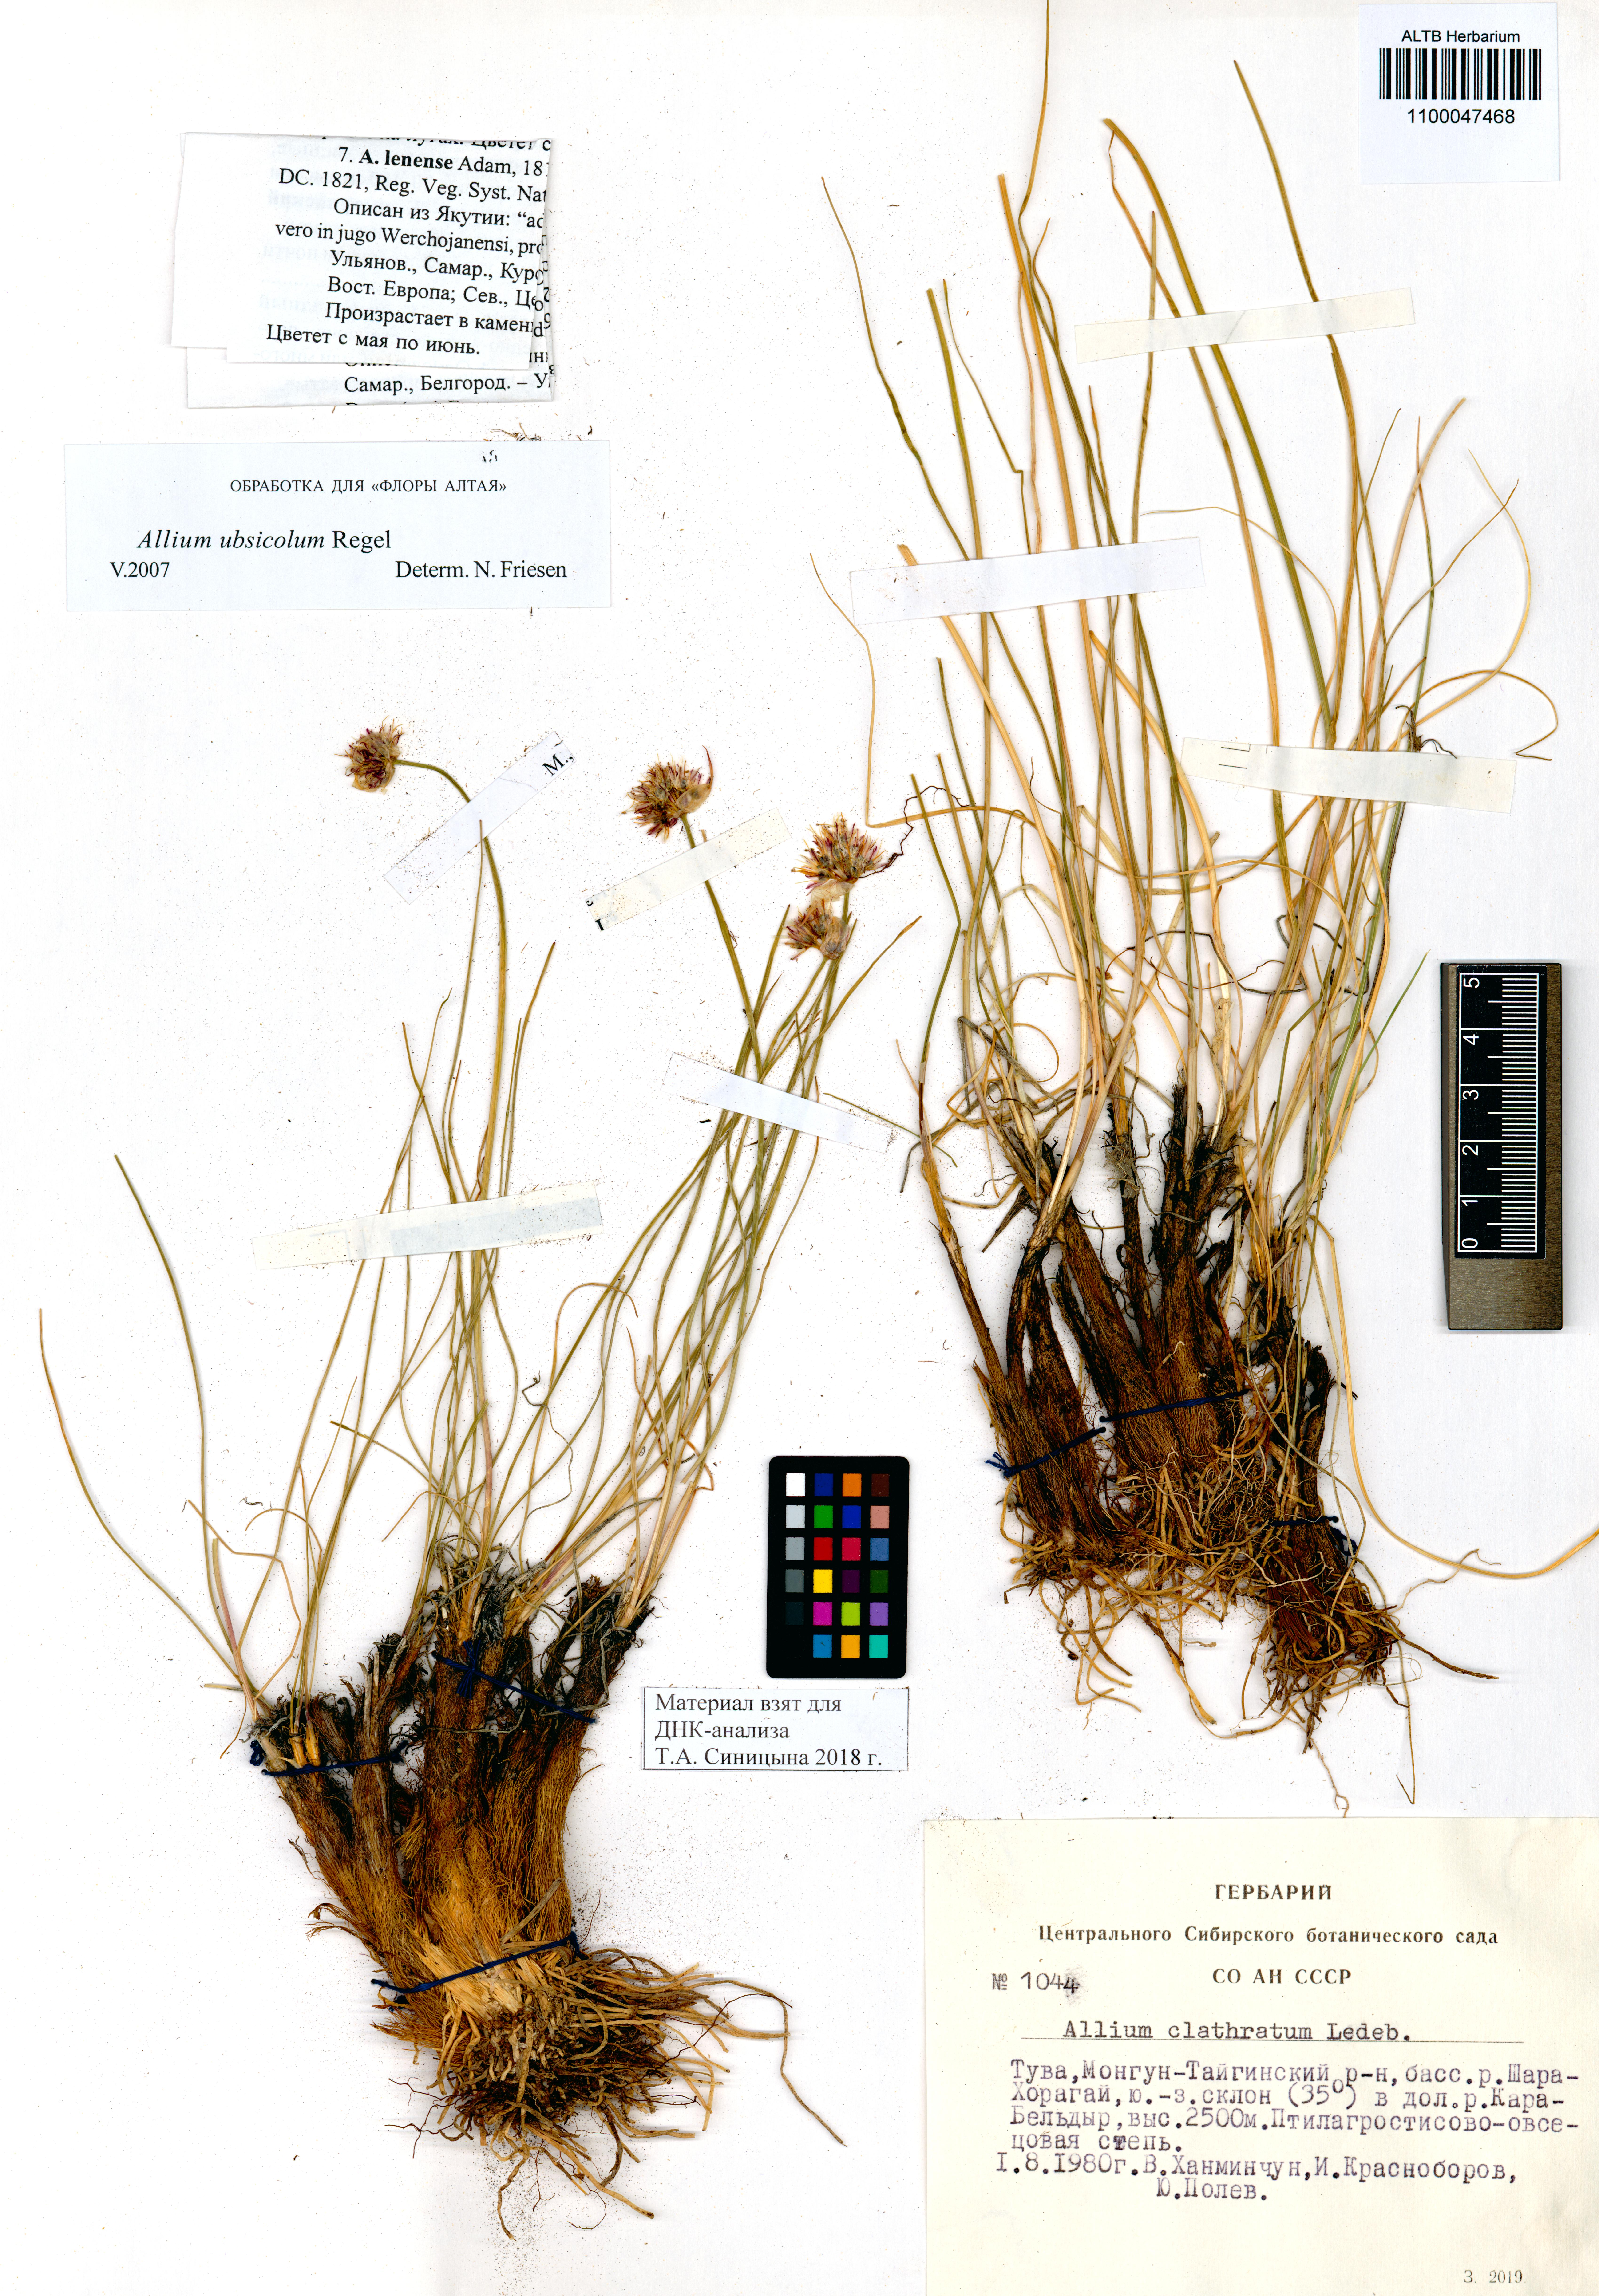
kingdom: Plantae
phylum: Tracheophyta
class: Liliopsida
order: Asparagales
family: Amaryllidaceae
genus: Allium
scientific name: Allium ubsicola
